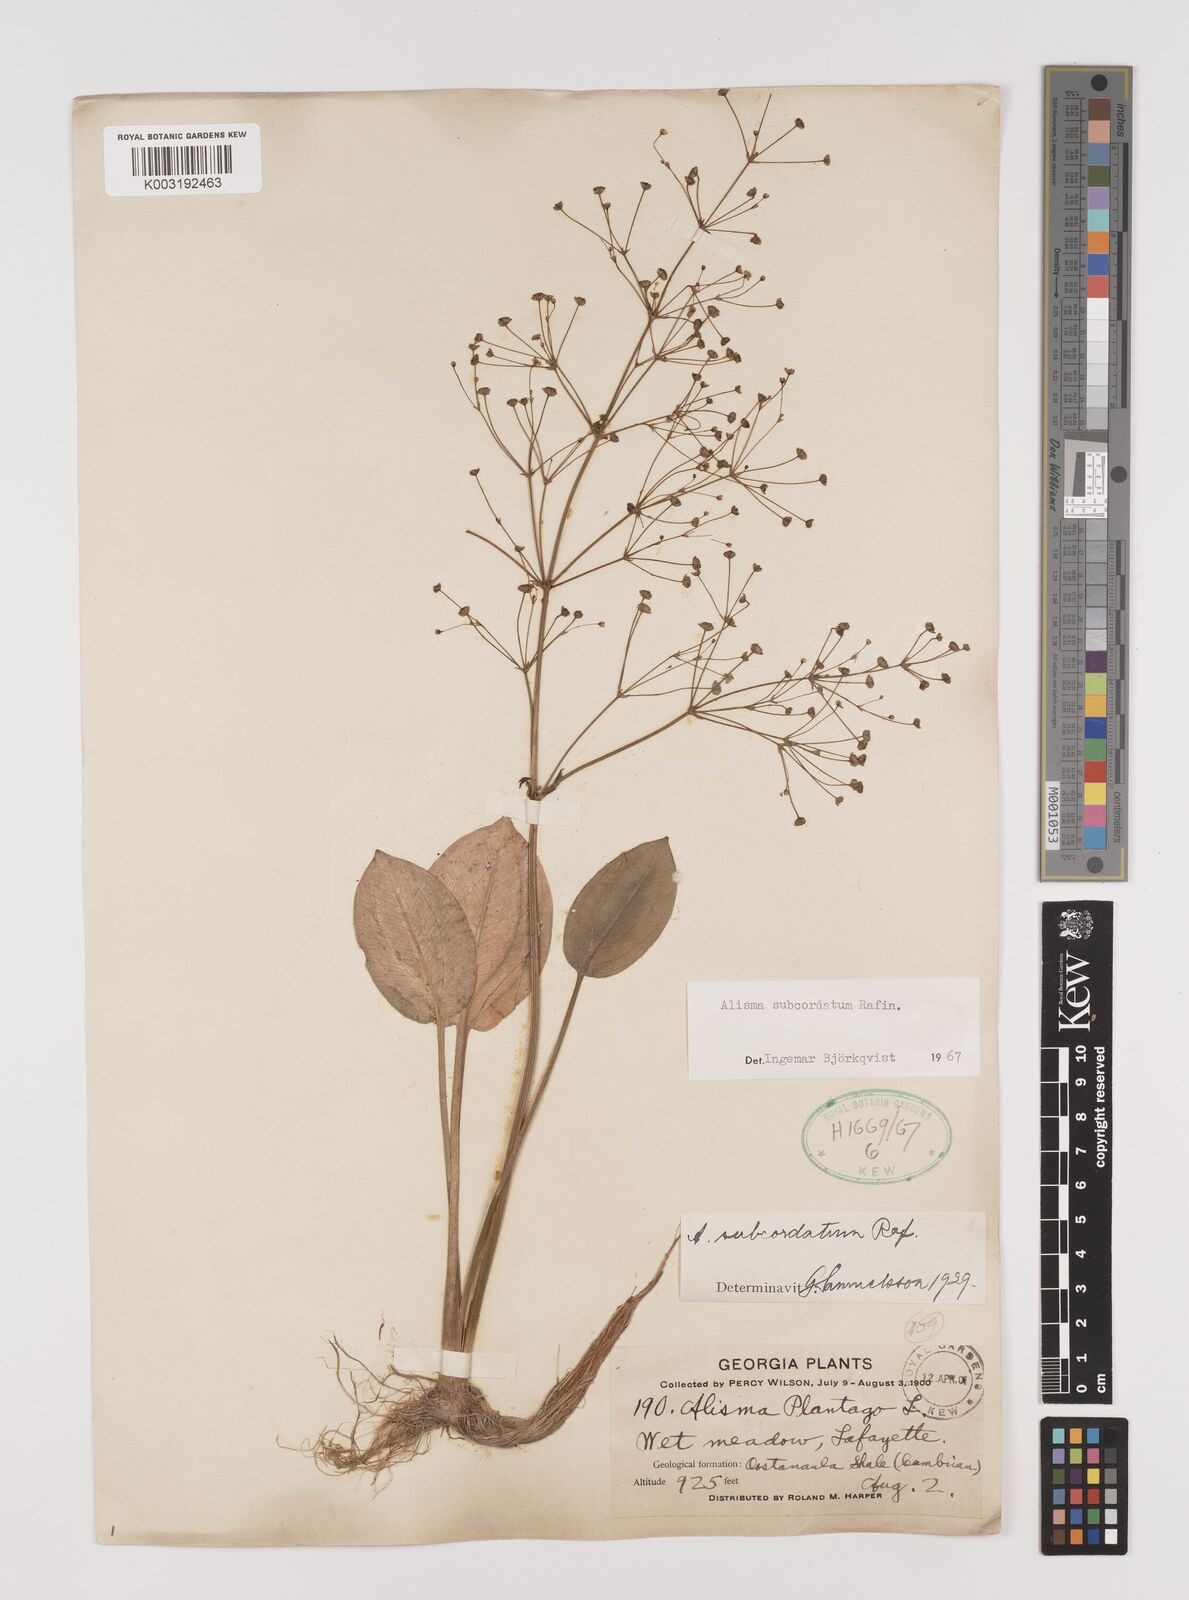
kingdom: Plantae
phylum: Tracheophyta
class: Liliopsida
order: Alismatales
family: Alismataceae
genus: Alisma
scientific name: Alisma subcordatum
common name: Southern water-plantain
